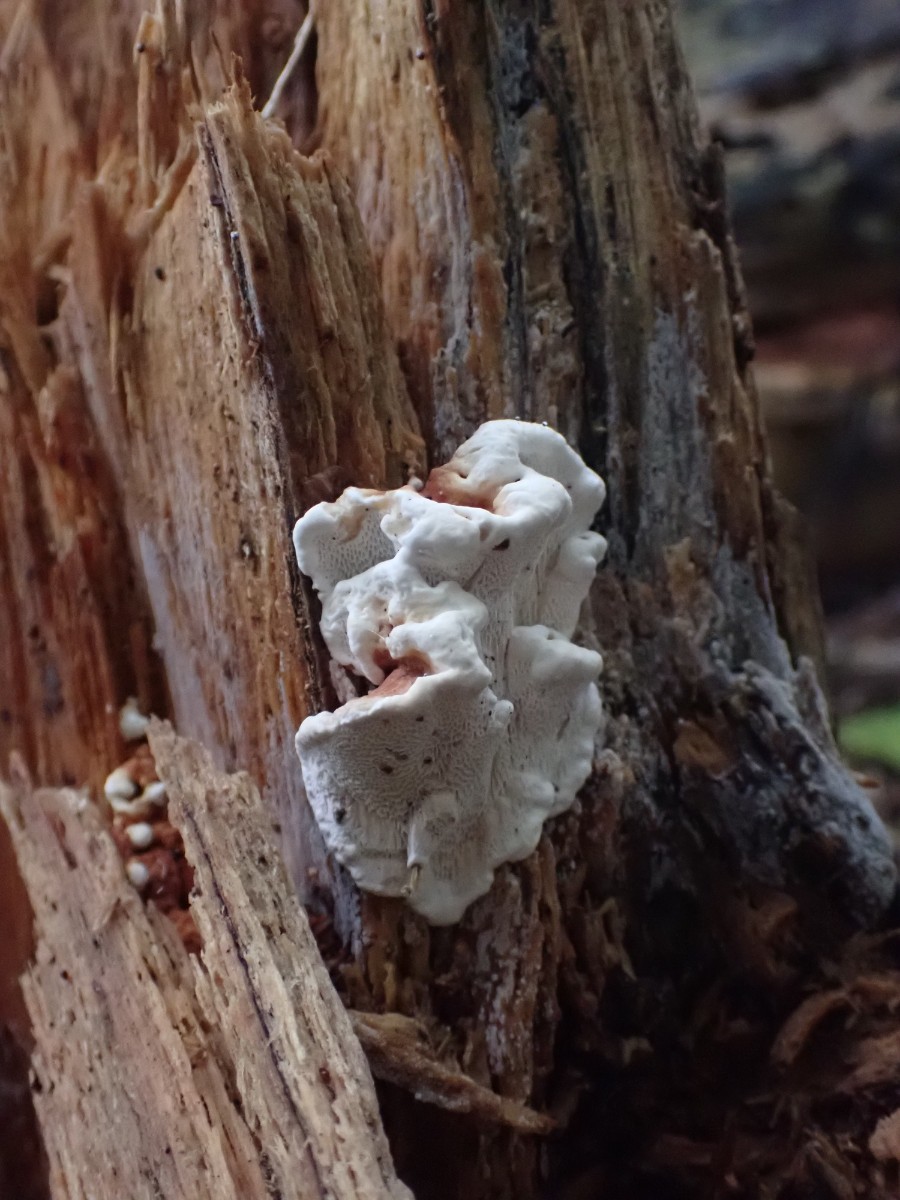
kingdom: Fungi
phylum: Basidiomycota
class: Agaricomycetes
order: Polyporales
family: Polyporaceae
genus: Trametes
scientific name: Trametes versicolor
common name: broget læderporesvamp
